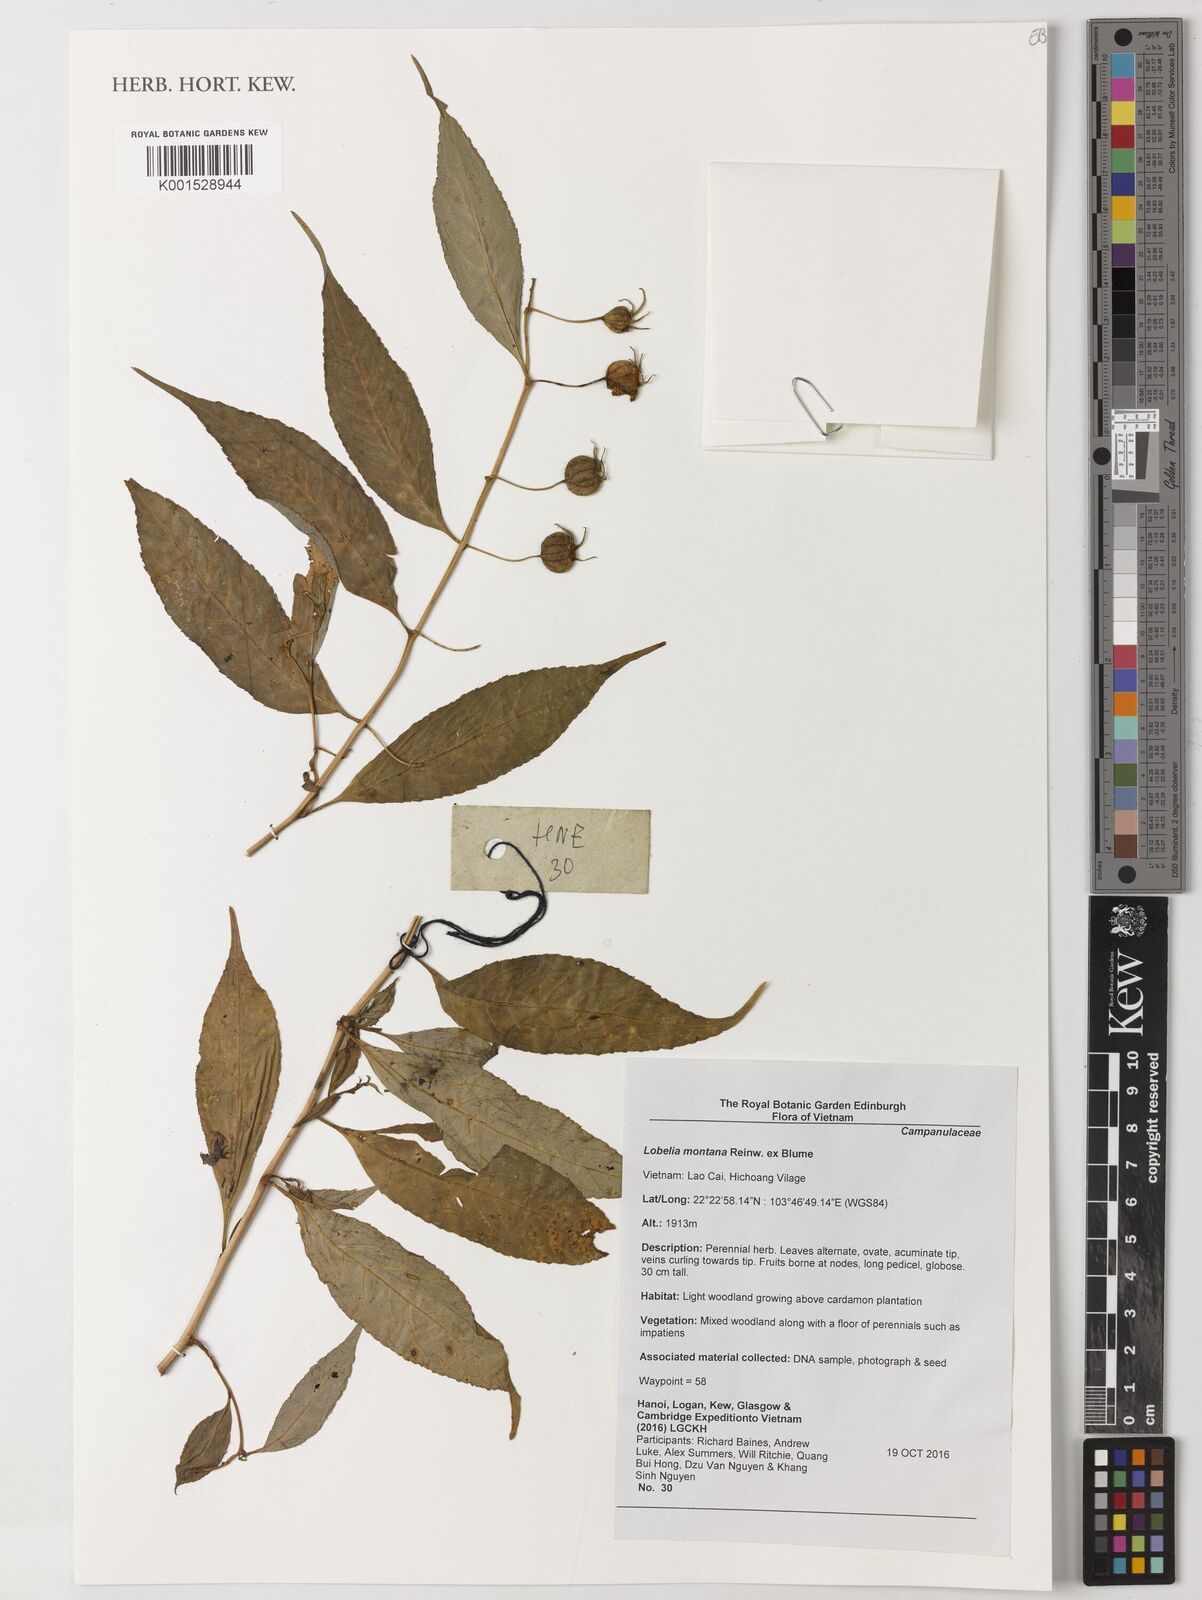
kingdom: Plantae
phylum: Tracheophyta
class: Magnoliopsida
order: Asterales
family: Campanulaceae
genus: Lobelia
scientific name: Lobelia montana
